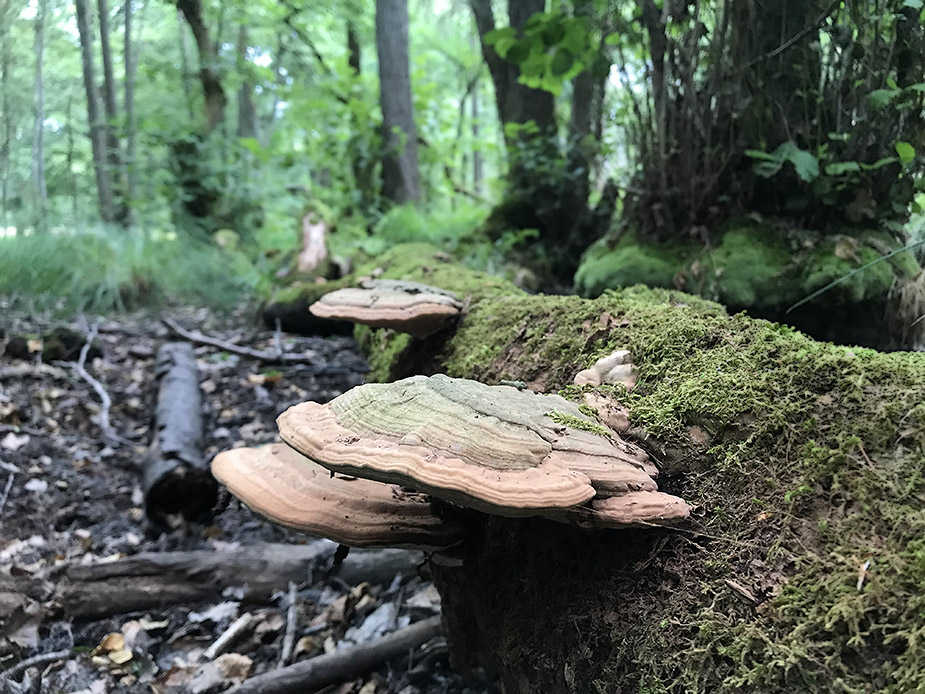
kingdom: Fungi
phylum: Basidiomycota
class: Agaricomycetes
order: Polyporales
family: Polyporaceae
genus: Ganoderma
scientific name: Ganoderma applanatum
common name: flad lakporesvamp
